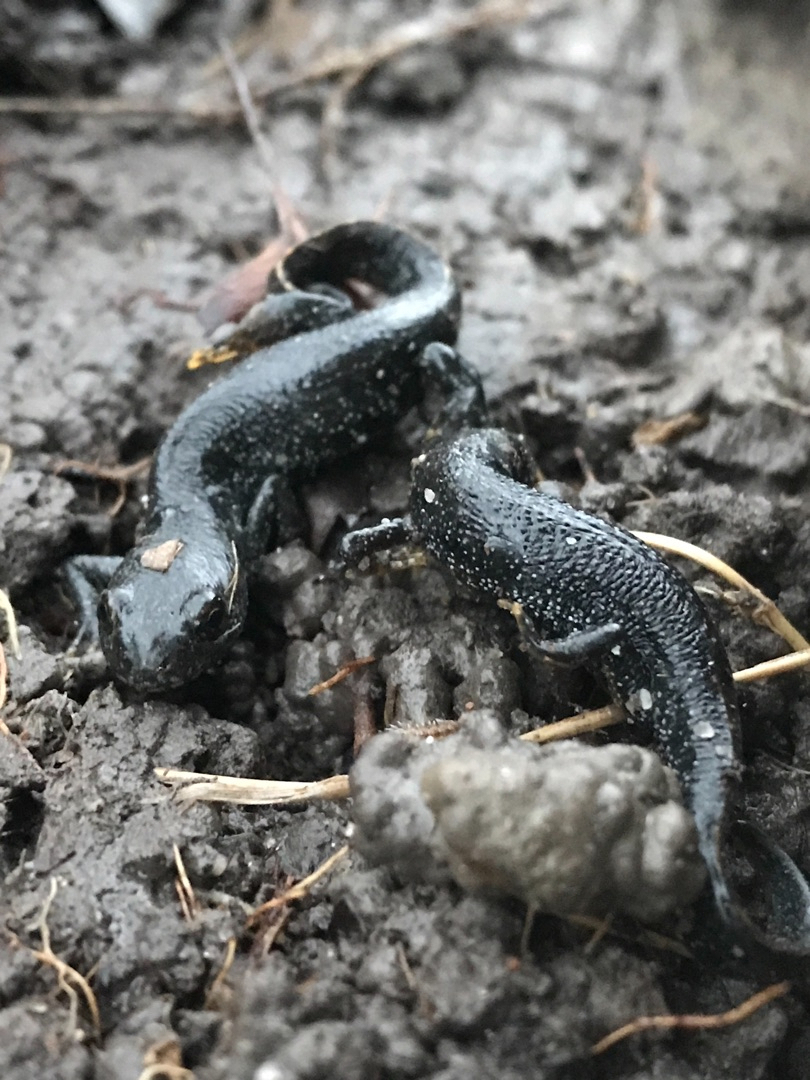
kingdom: Animalia
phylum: Chordata
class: Amphibia
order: Caudata
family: Salamandridae
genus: Triturus
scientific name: Triturus cristatus
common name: Stor vandsalamander
